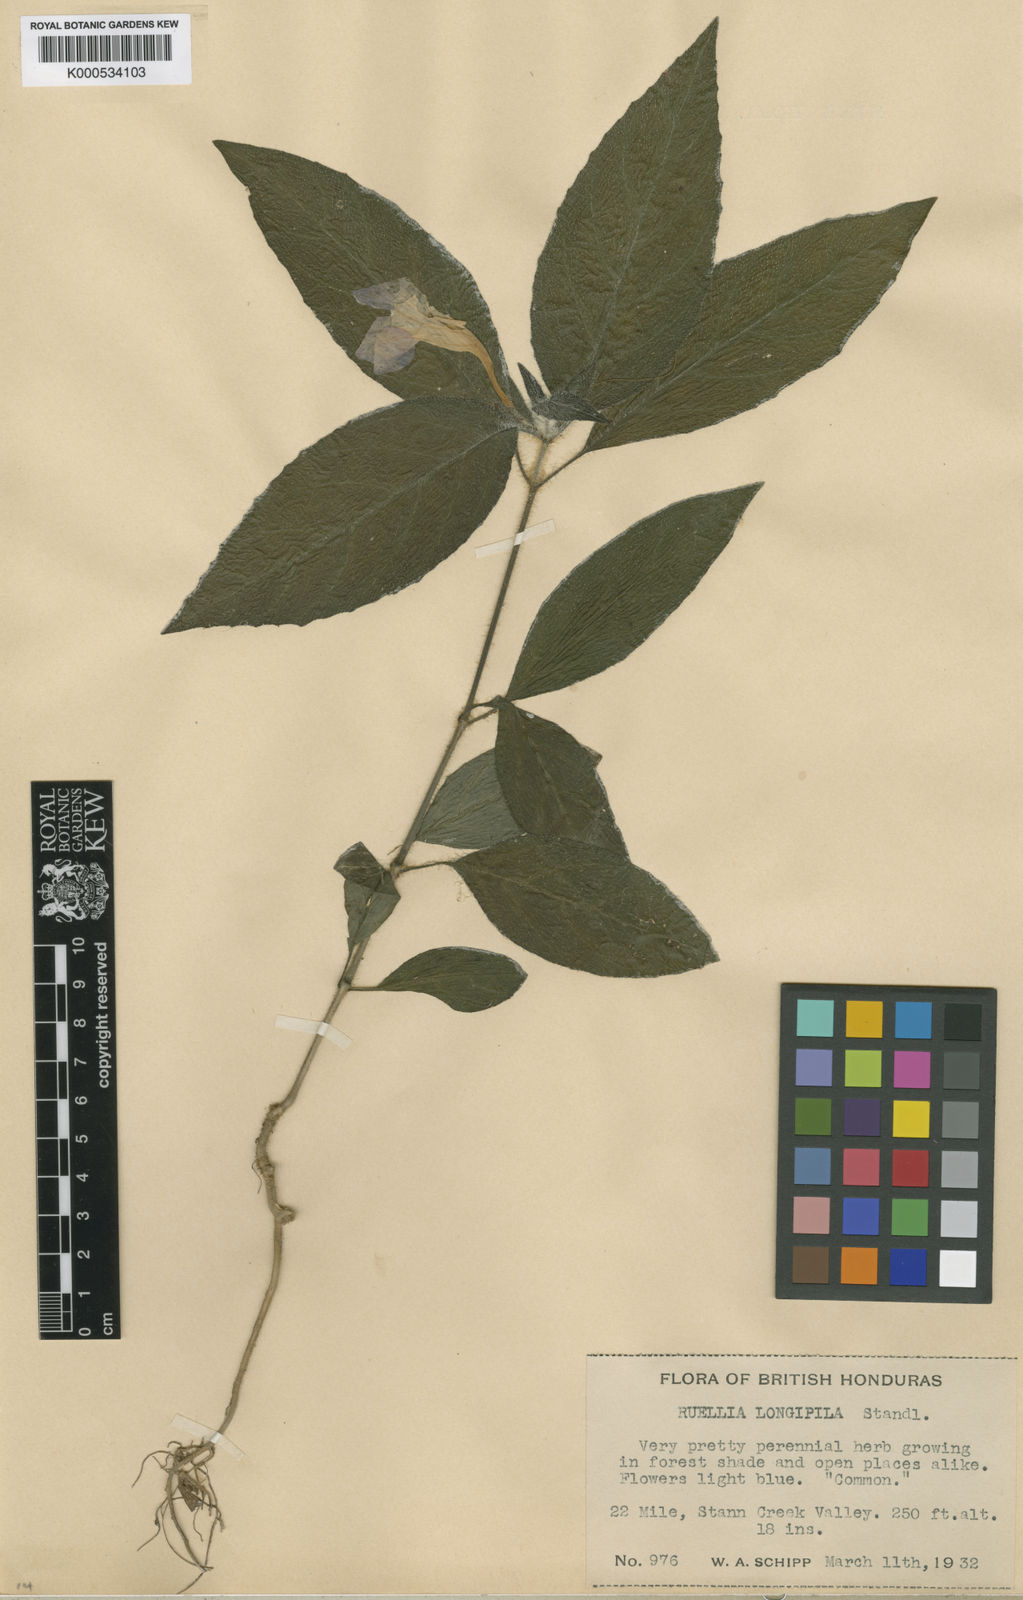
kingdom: Plantae
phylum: Tracheophyta
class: Magnoliopsida
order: Lamiales
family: Acanthaceae
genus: Ruellia
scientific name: Ruellia harveyana
